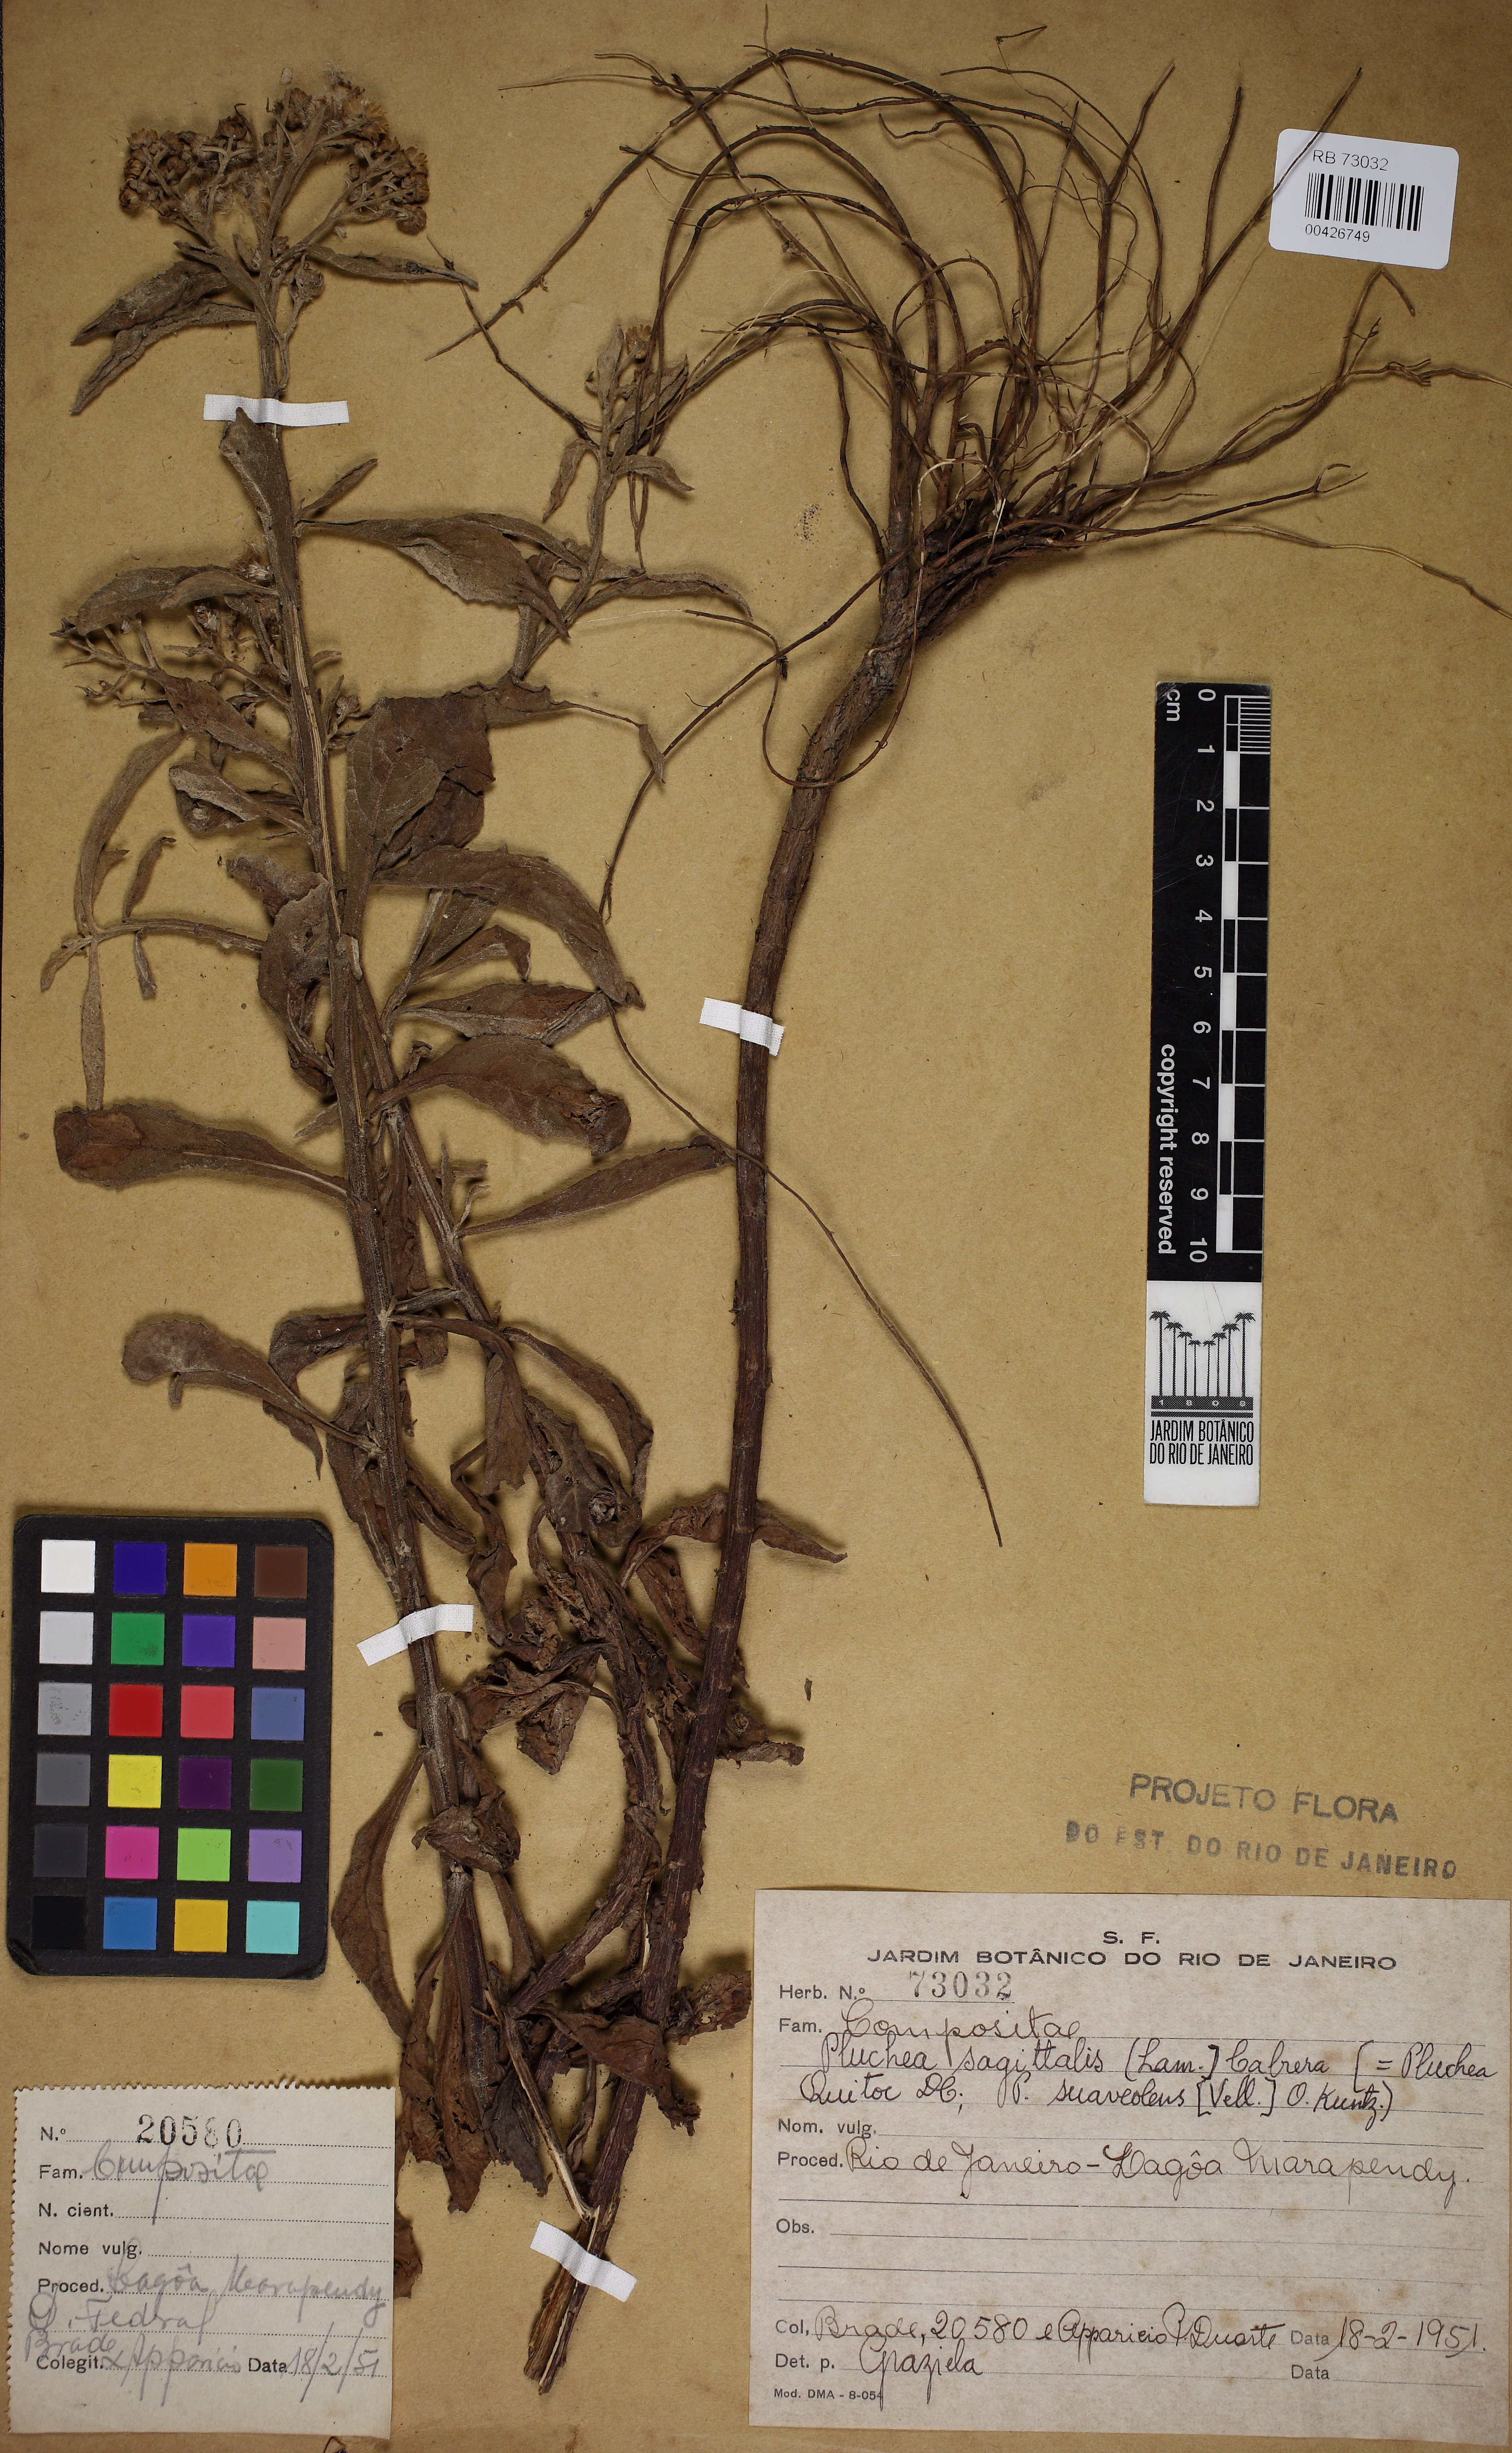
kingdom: Plantae
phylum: Tracheophyta
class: Magnoliopsida
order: Asterales
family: Asteraceae
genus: Pluchea
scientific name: Pluchea sagittalis
